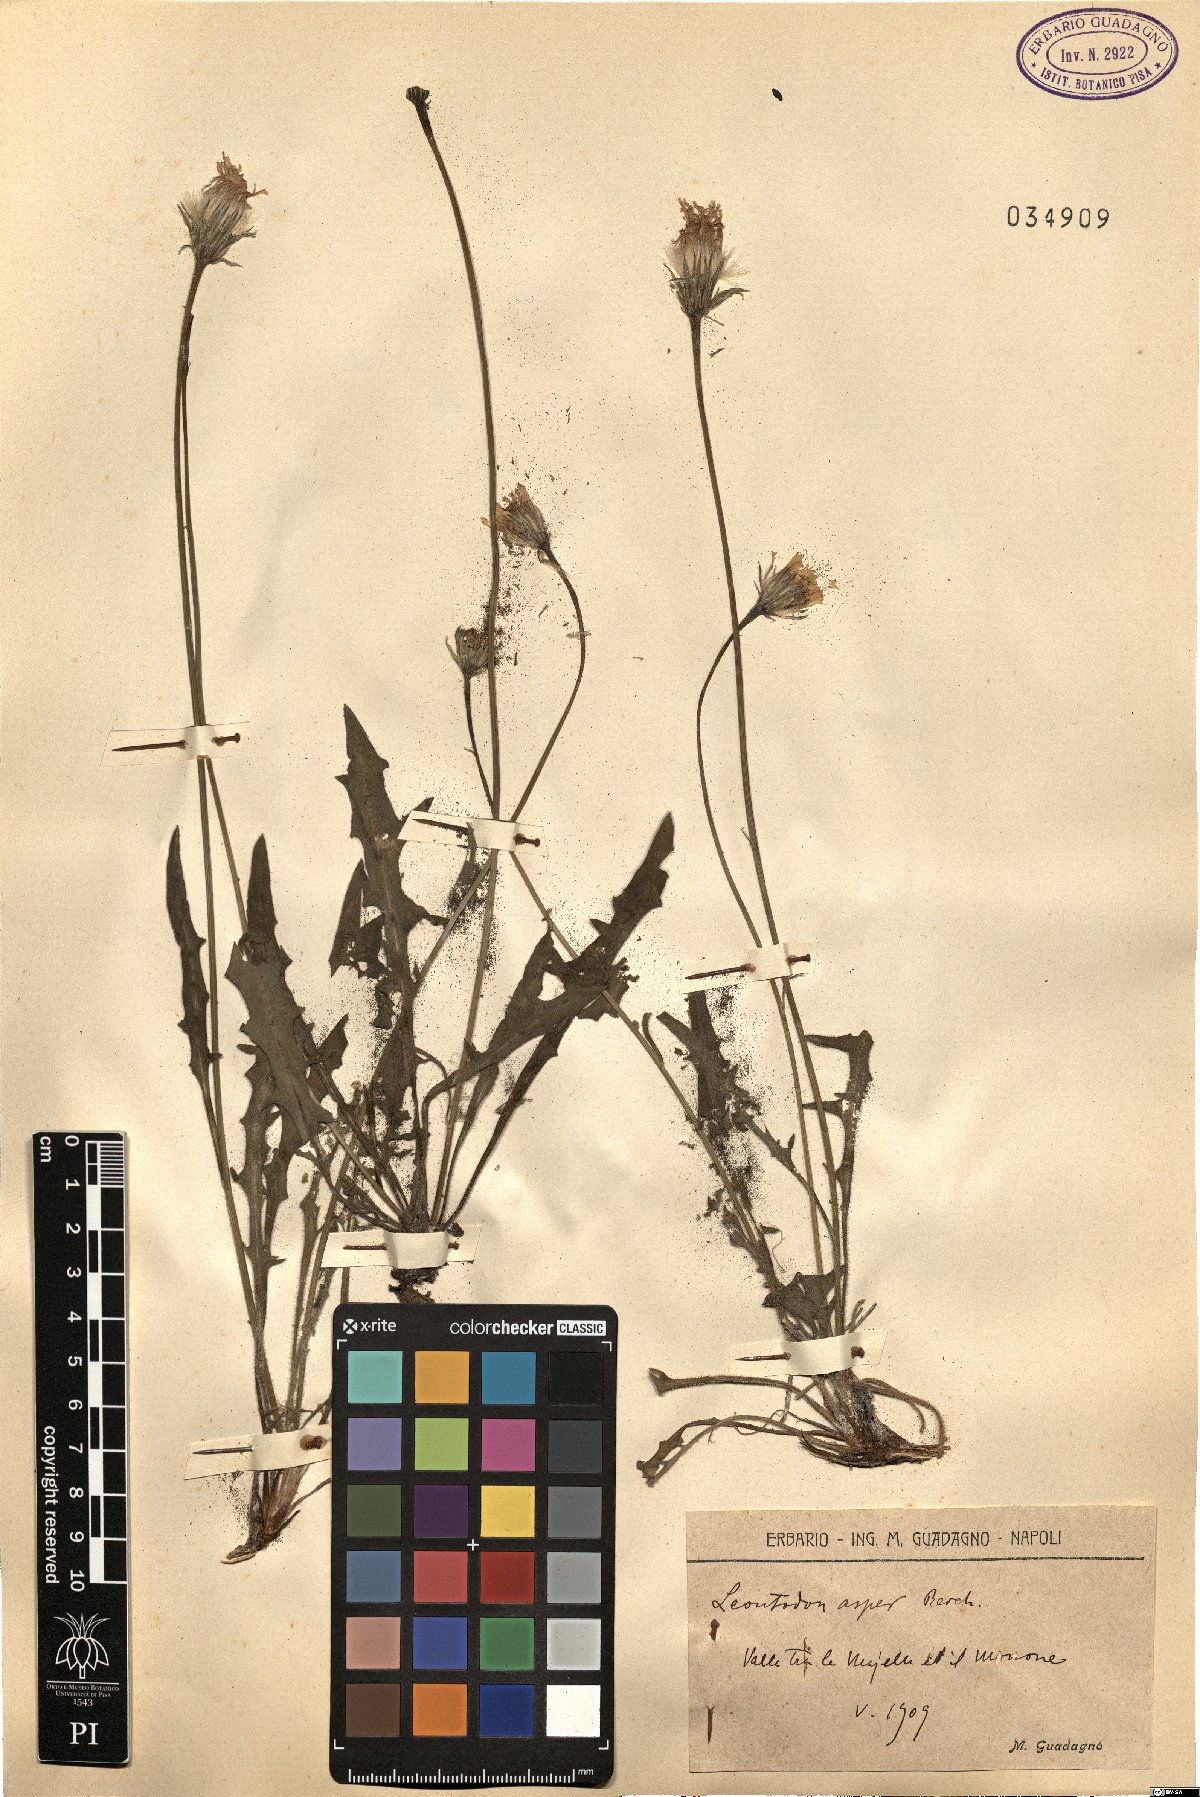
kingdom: Plantae
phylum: Tracheophyta
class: Magnoliopsida
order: Asterales
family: Asteraceae
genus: Leontodon
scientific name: Leontodon biscutellifolius
